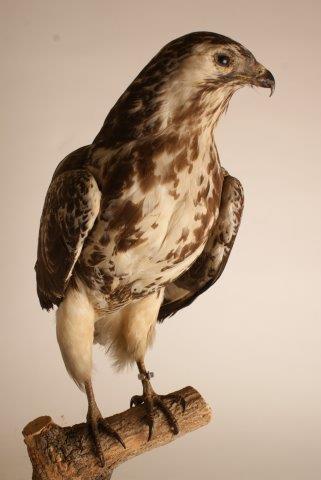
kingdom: Animalia
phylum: Chordata
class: Aves
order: Accipitriformes
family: Accipitridae
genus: Buteo
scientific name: Buteo buteo
